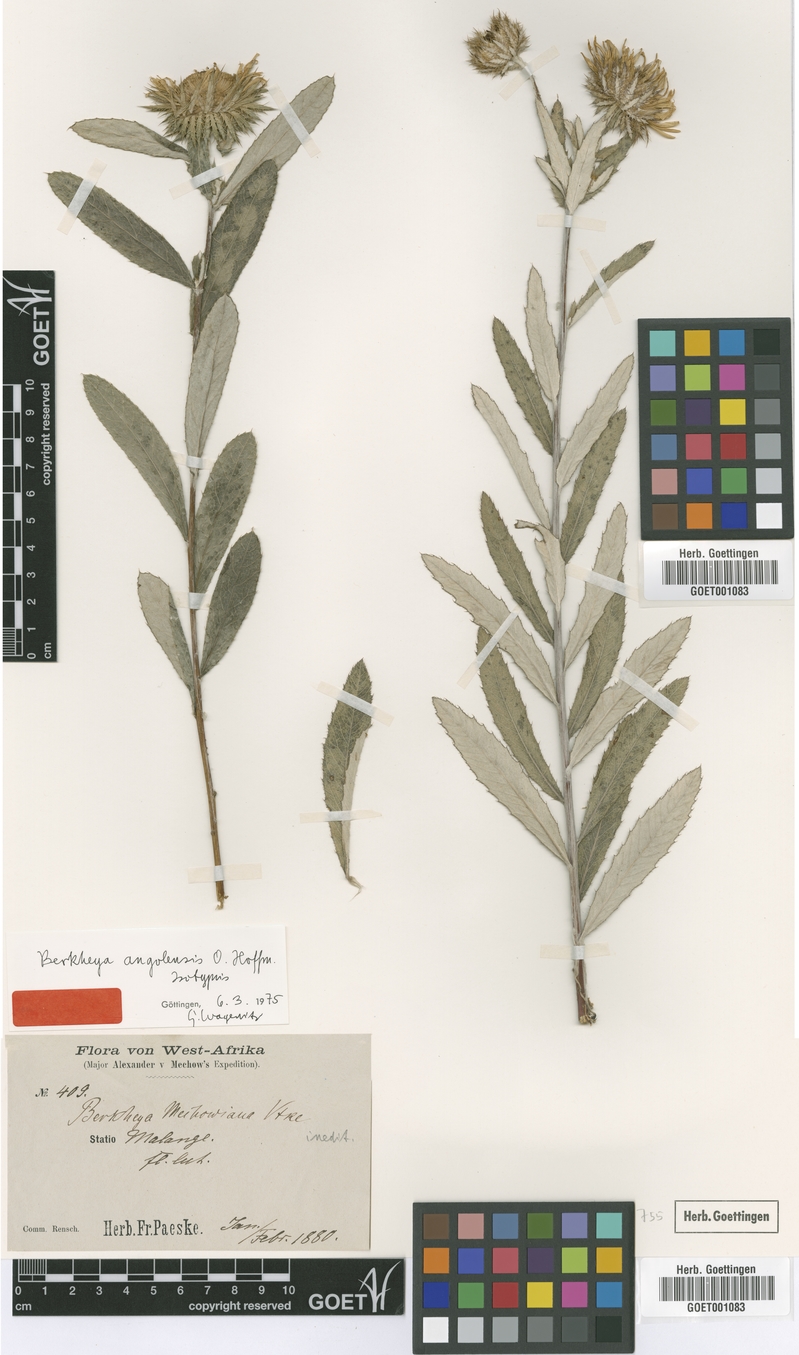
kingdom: Plantae
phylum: Tracheophyta
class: Magnoliopsida
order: Asterales
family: Asteraceae
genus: Berkheya
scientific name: Berkheya angolensis
